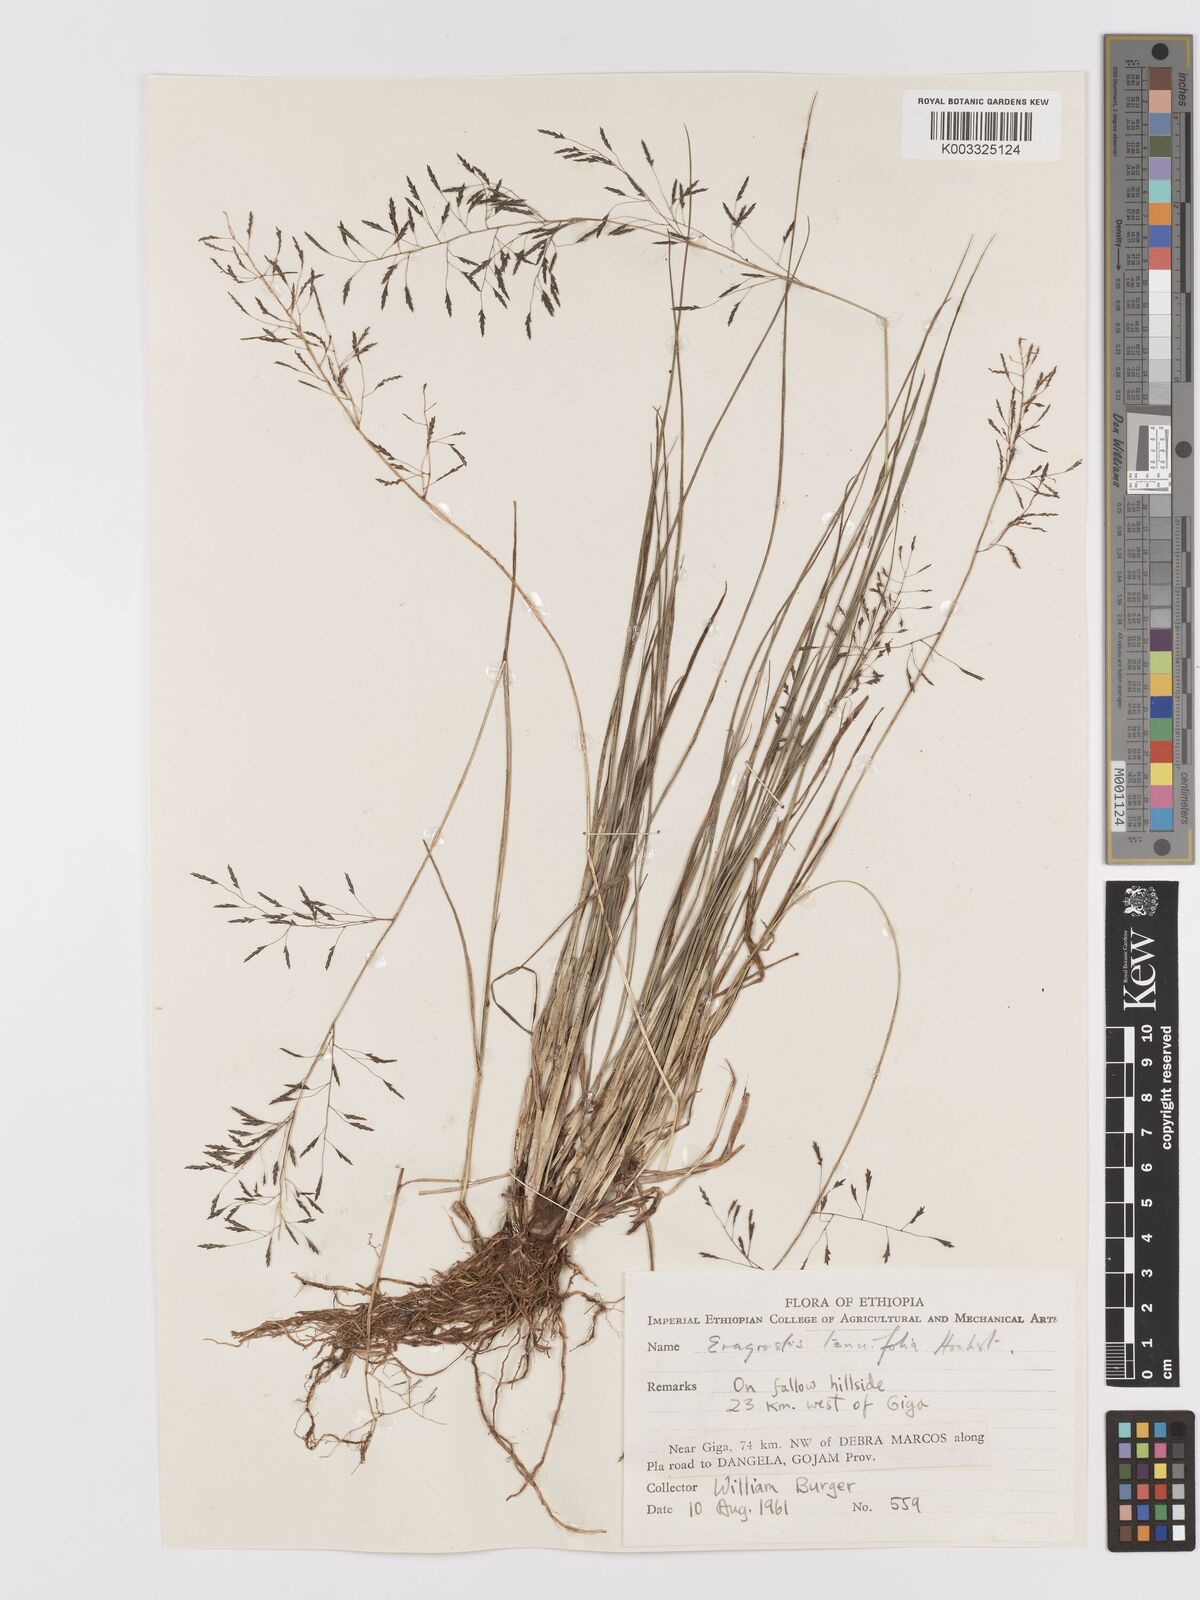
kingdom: Plantae
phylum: Tracheophyta
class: Liliopsida
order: Poales
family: Poaceae
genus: Eragrostis
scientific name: Eragrostis tenuifolia
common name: Elastic grass
